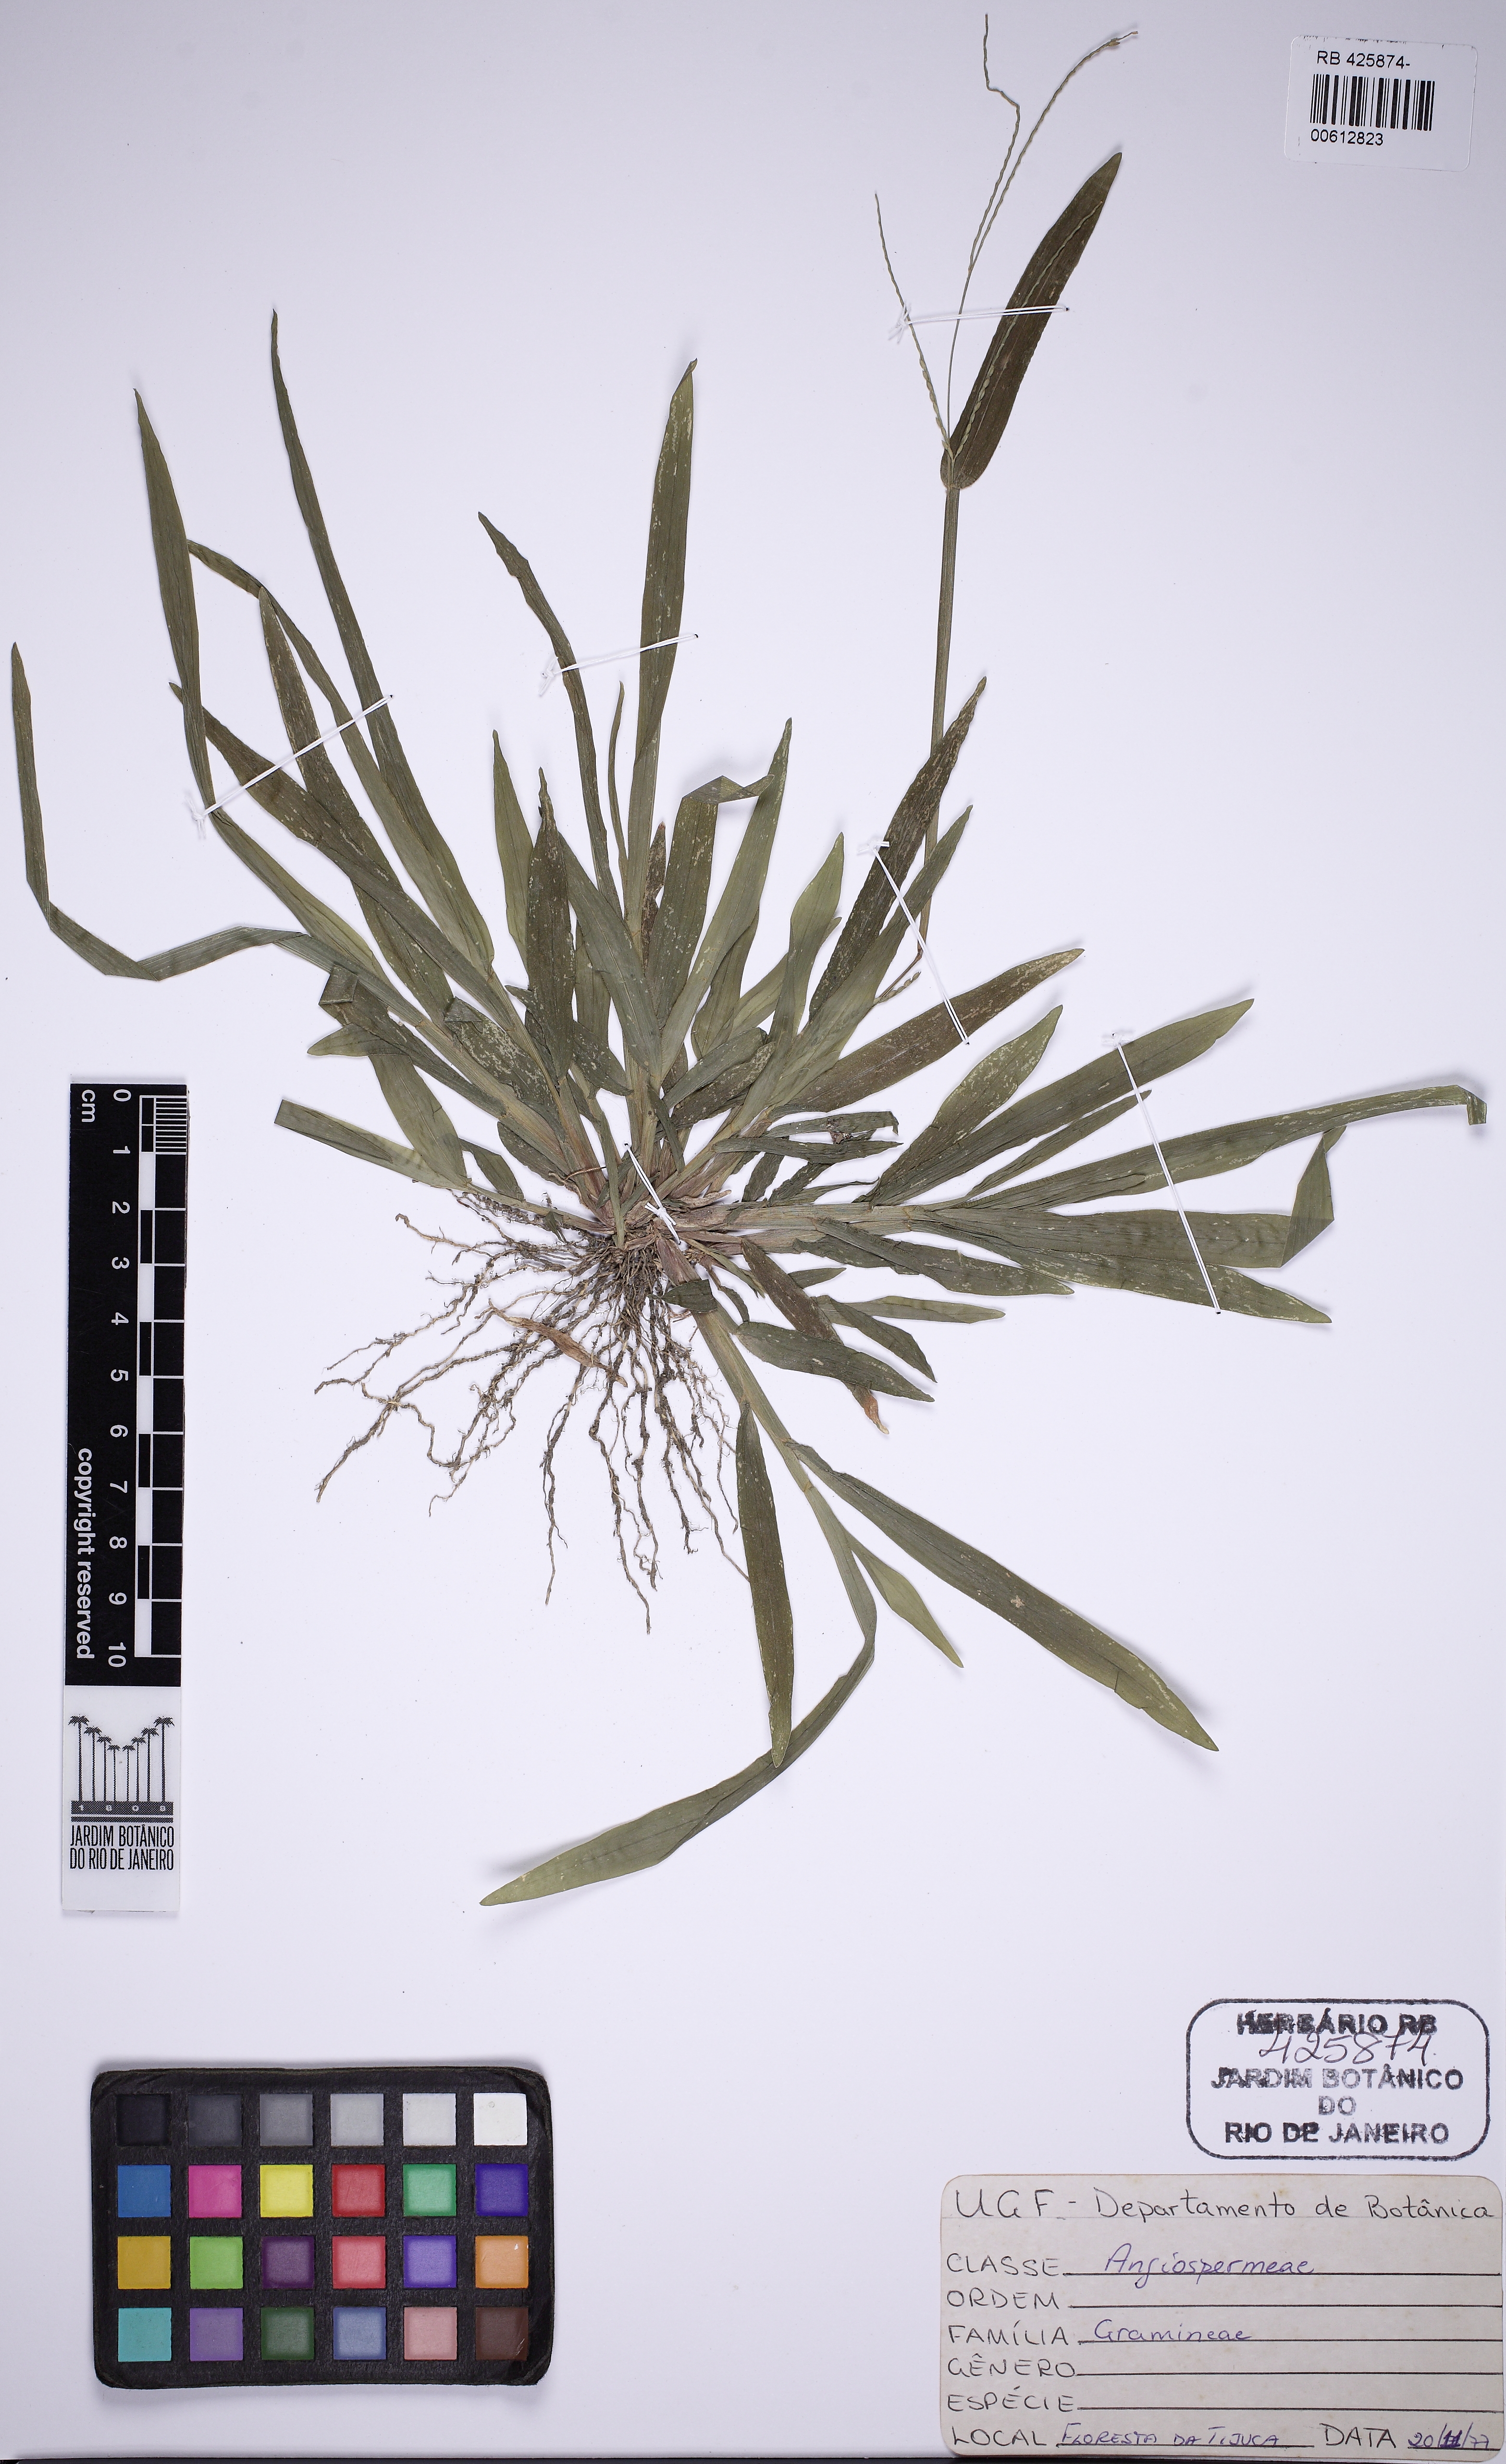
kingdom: Plantae
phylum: Tracheophyta
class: Liliopsida
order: Poales
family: Poaceae
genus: Axonopus
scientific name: Axonopus
